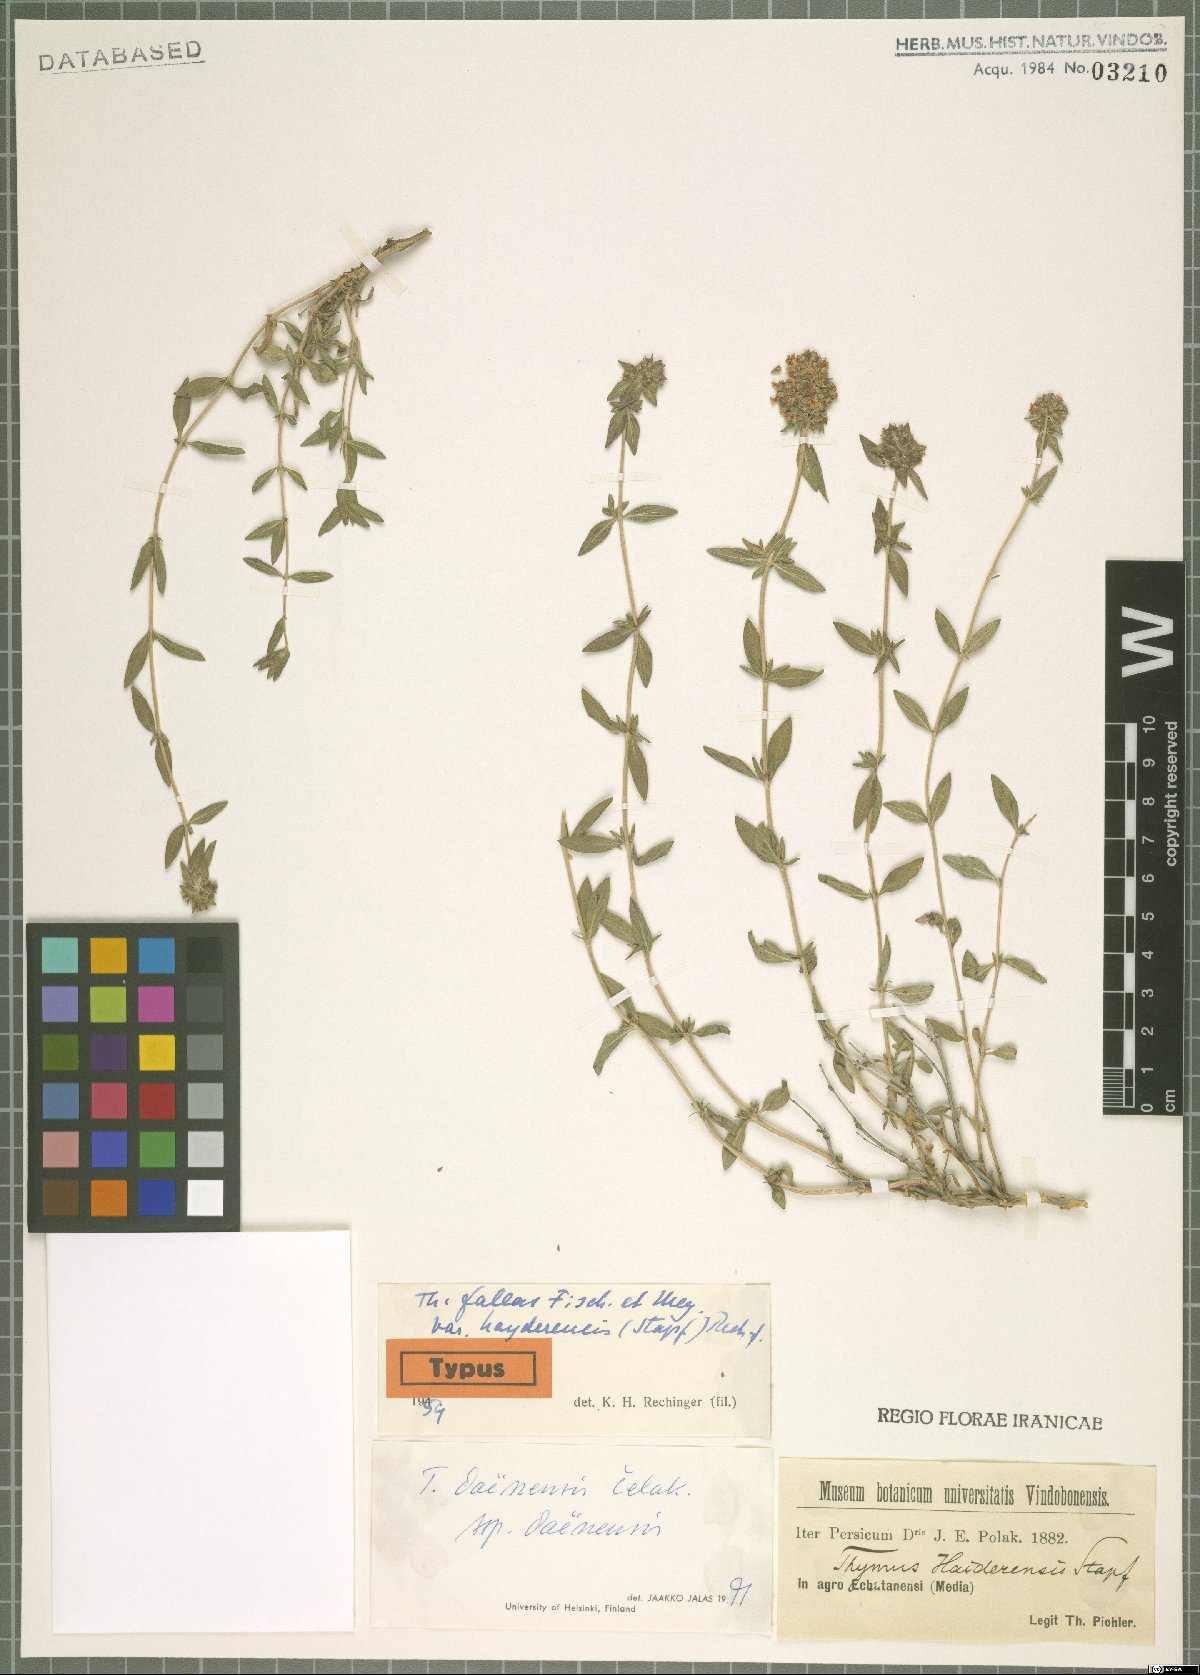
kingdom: Plantae
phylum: Tracheophyta
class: Magnoliopsida
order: Lamiales
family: Lamiaceae
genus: Thymus
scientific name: Thymus daenensis
